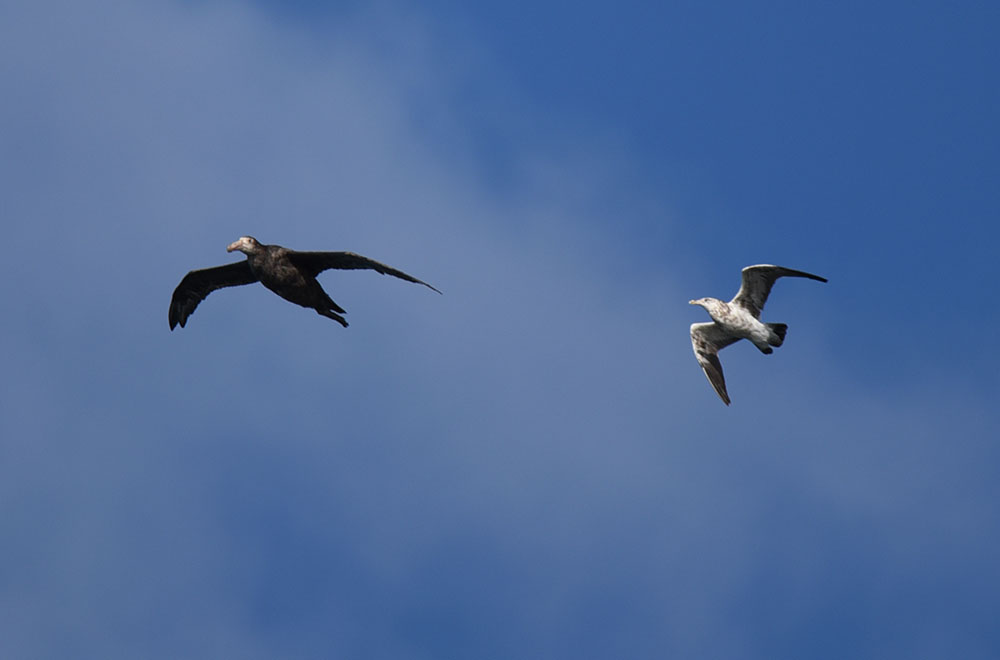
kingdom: Animalia
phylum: Chordata
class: Aves
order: Procellariiformes
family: Diomedeidae
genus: Diomedea
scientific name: Diomedea antipodensis
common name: Antipodean albatross
